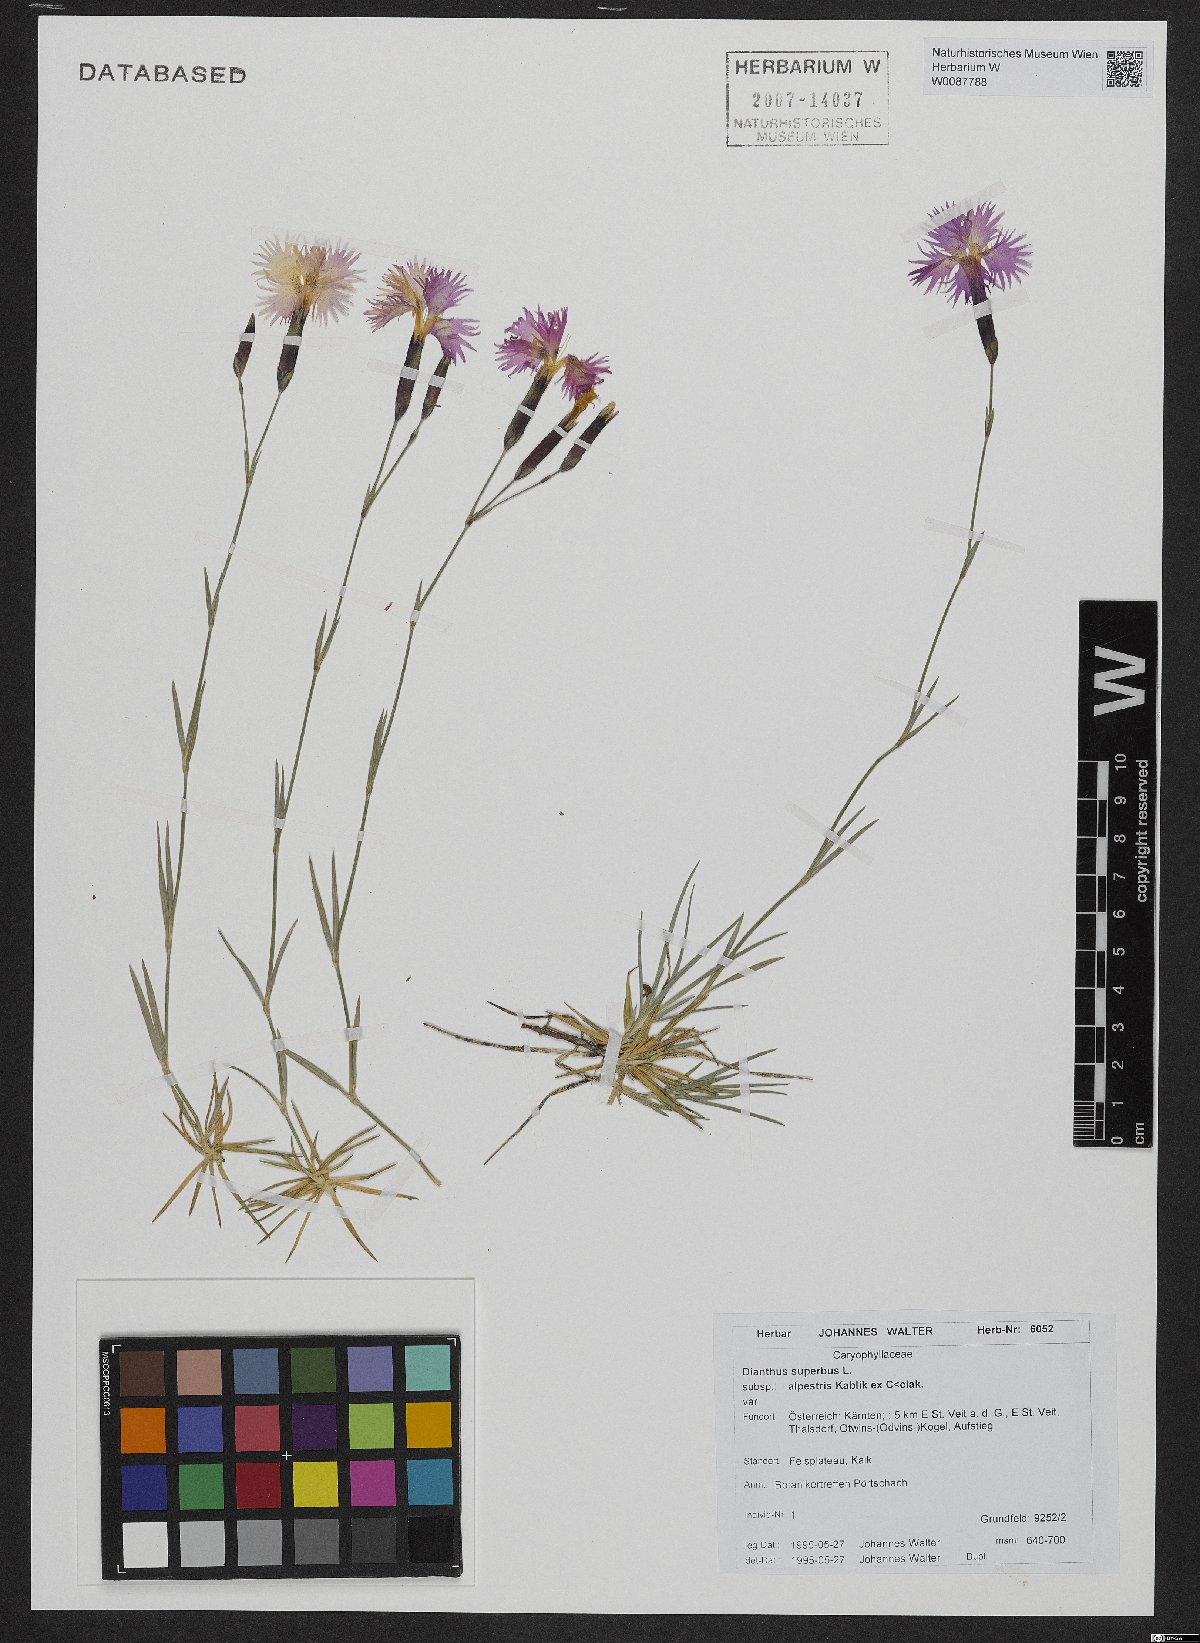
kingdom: Plantae
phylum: Tracheophyta
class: Magnoliopsida
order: Caryophyllales
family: Caryophyllaceae
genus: Dianthus
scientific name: Dianthus plumarius
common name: Pink
